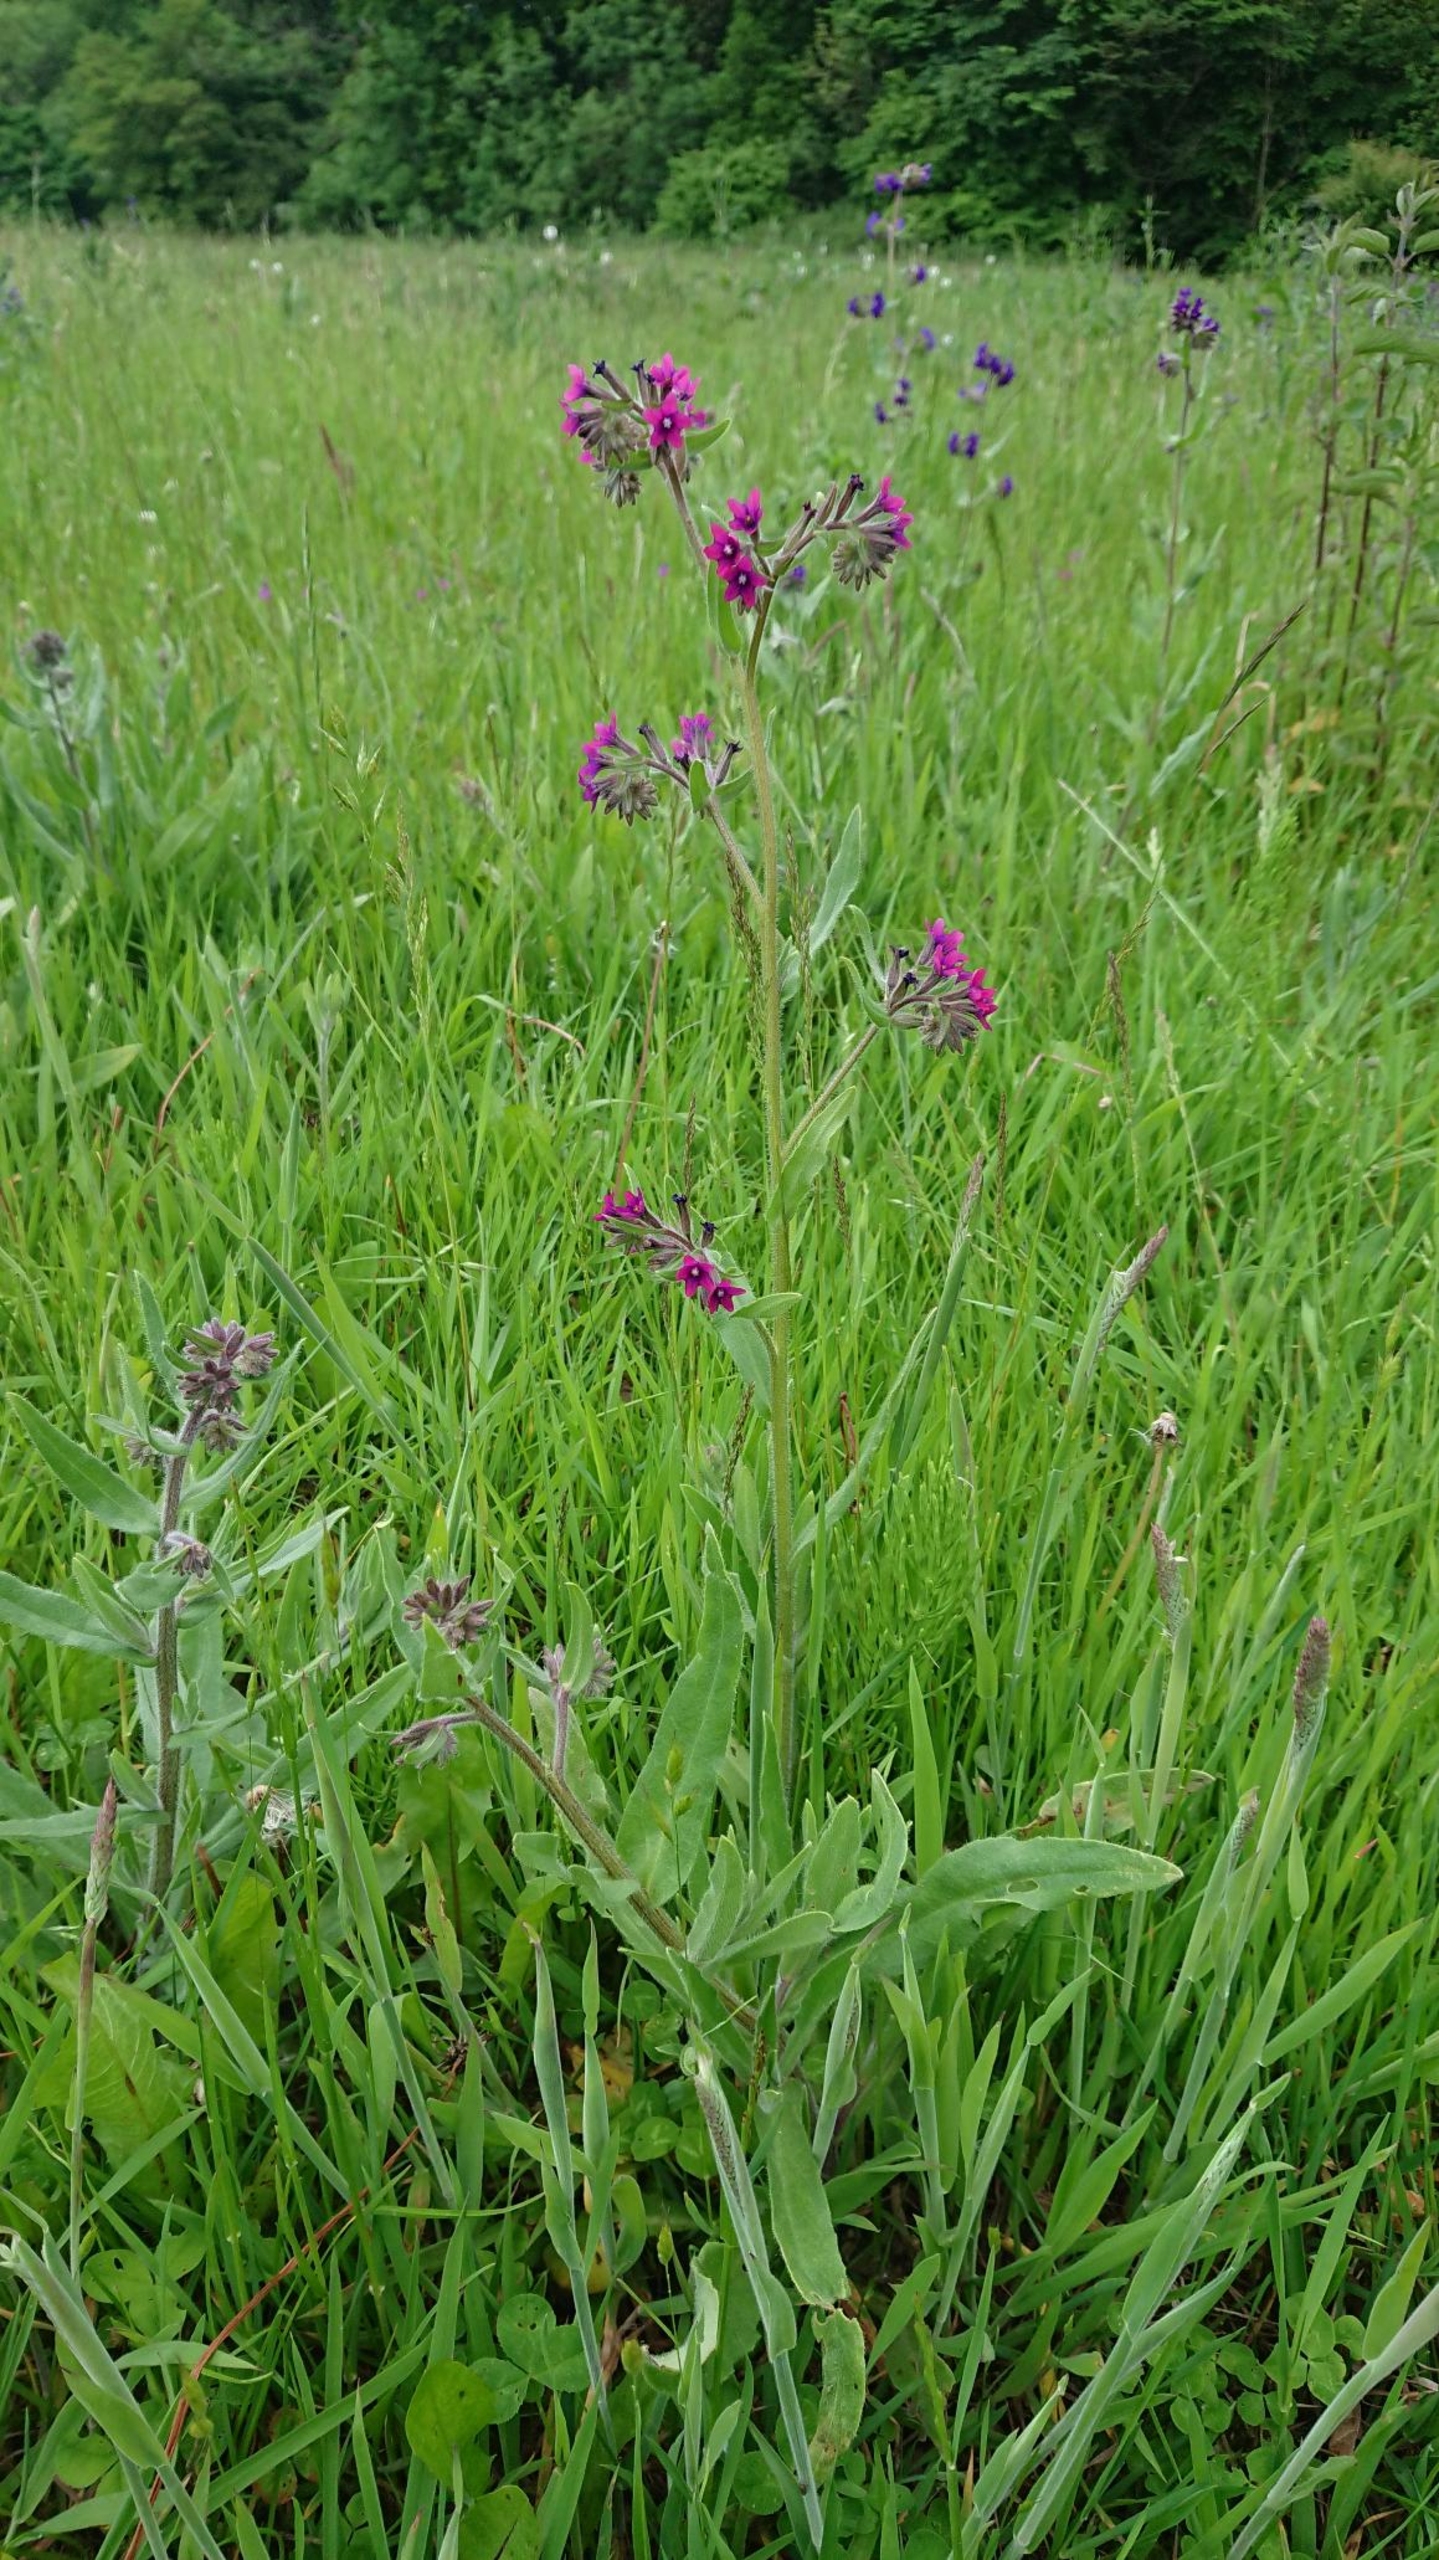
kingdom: Plantae
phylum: Tracheophyta
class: Magnoliopsida
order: Boraginales
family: Boraginaceae
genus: Anchusa
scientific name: Anchusa officinalis
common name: Læge-oksetunge
